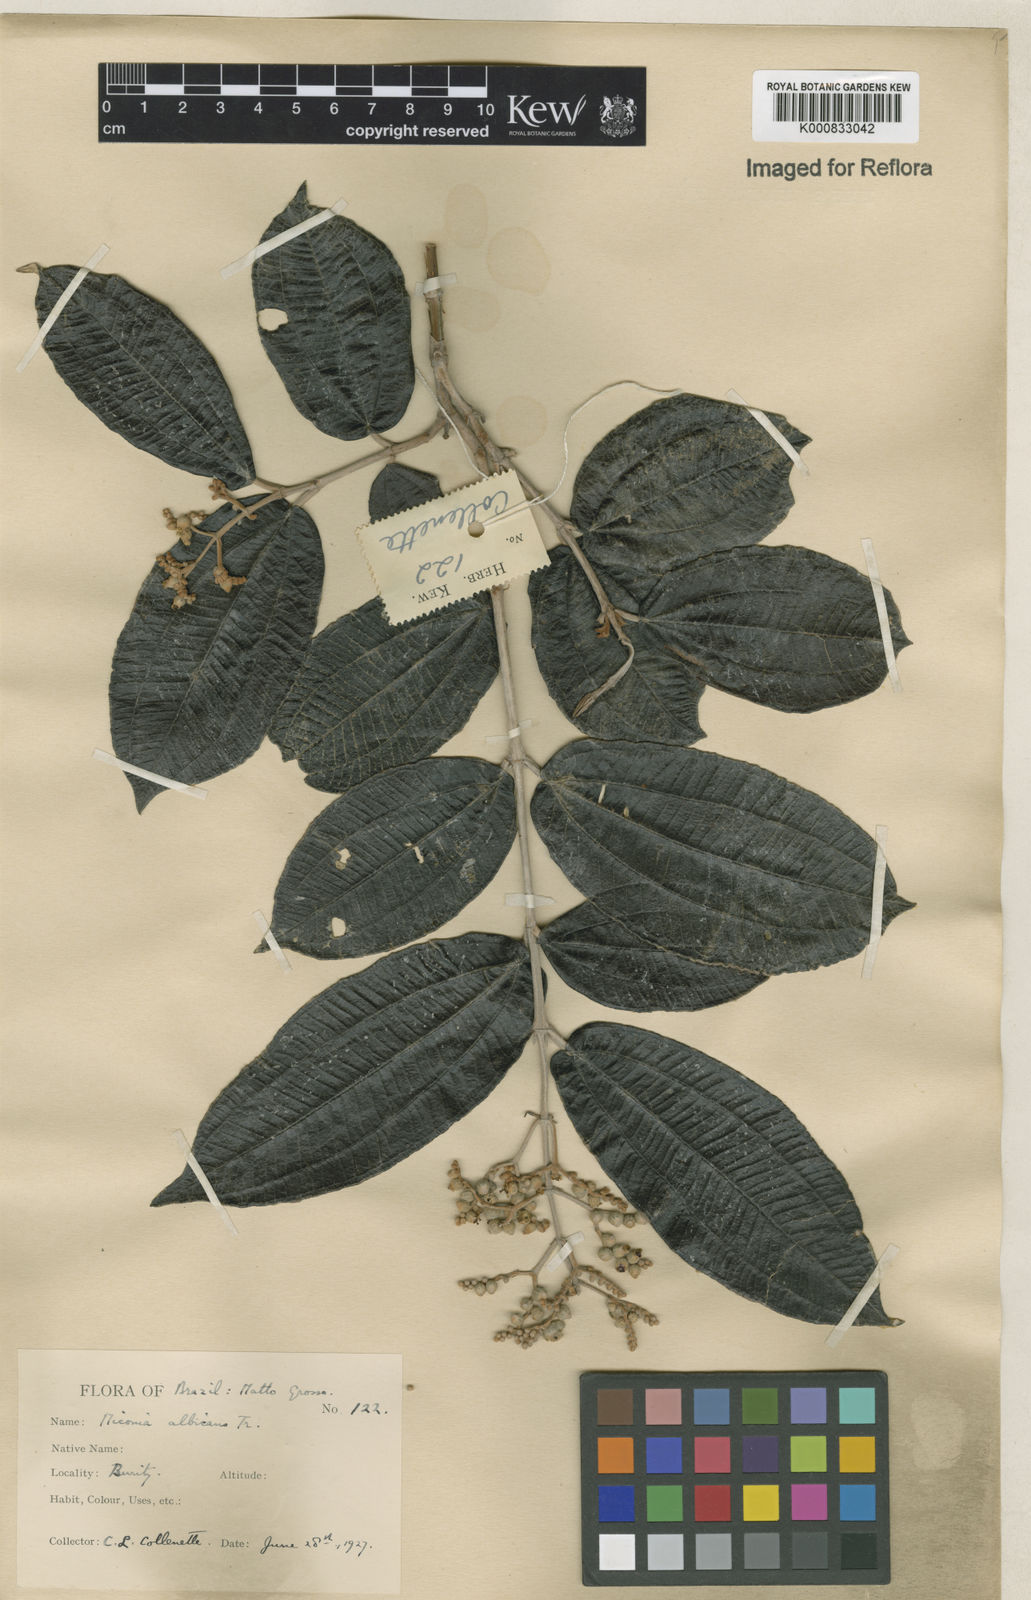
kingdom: Plantae
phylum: Tracheophyta
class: Magnoliopsida
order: Myrtales
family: Melastomataceae
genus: Miconia
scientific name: Miconia albicans
